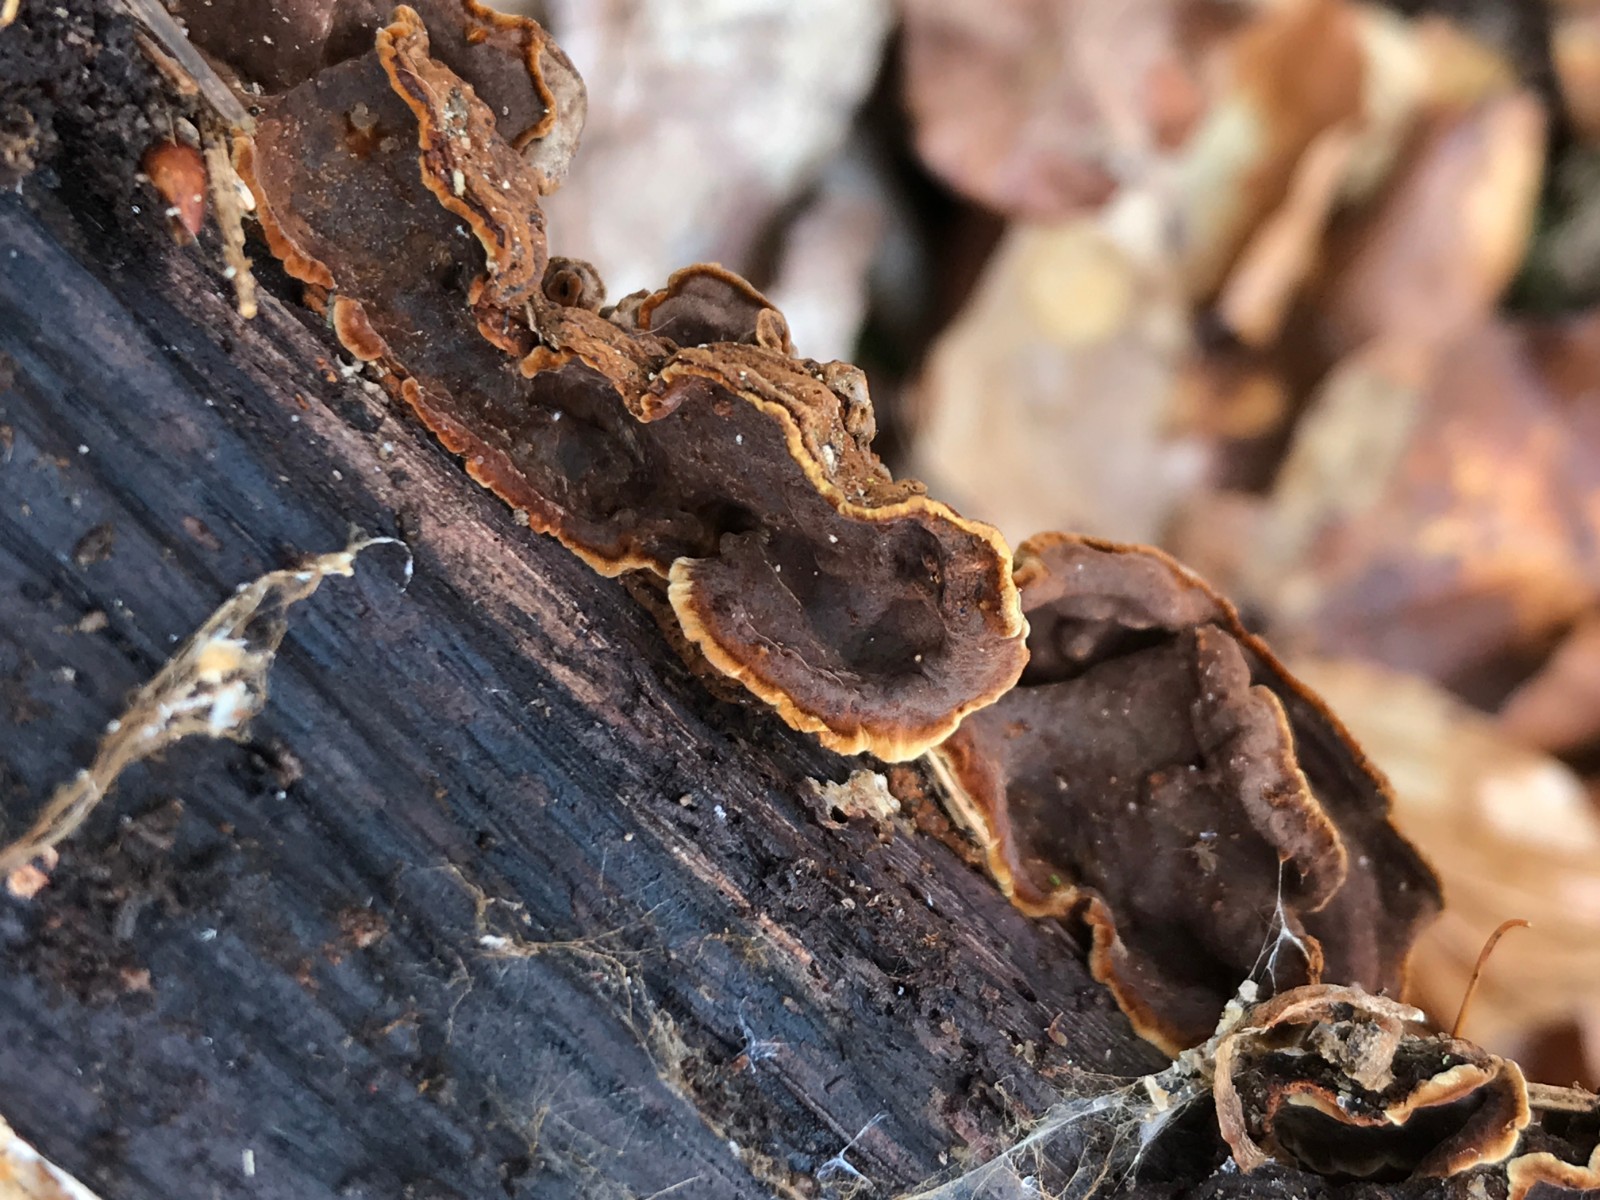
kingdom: Fungi
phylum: Basidiomycota
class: Agaricomycetes
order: Hymenochaetales
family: Hymenochaetaceae
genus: Hymenochaete
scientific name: Hymenochaete rubiginosa
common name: stiv ruslædersvamp
